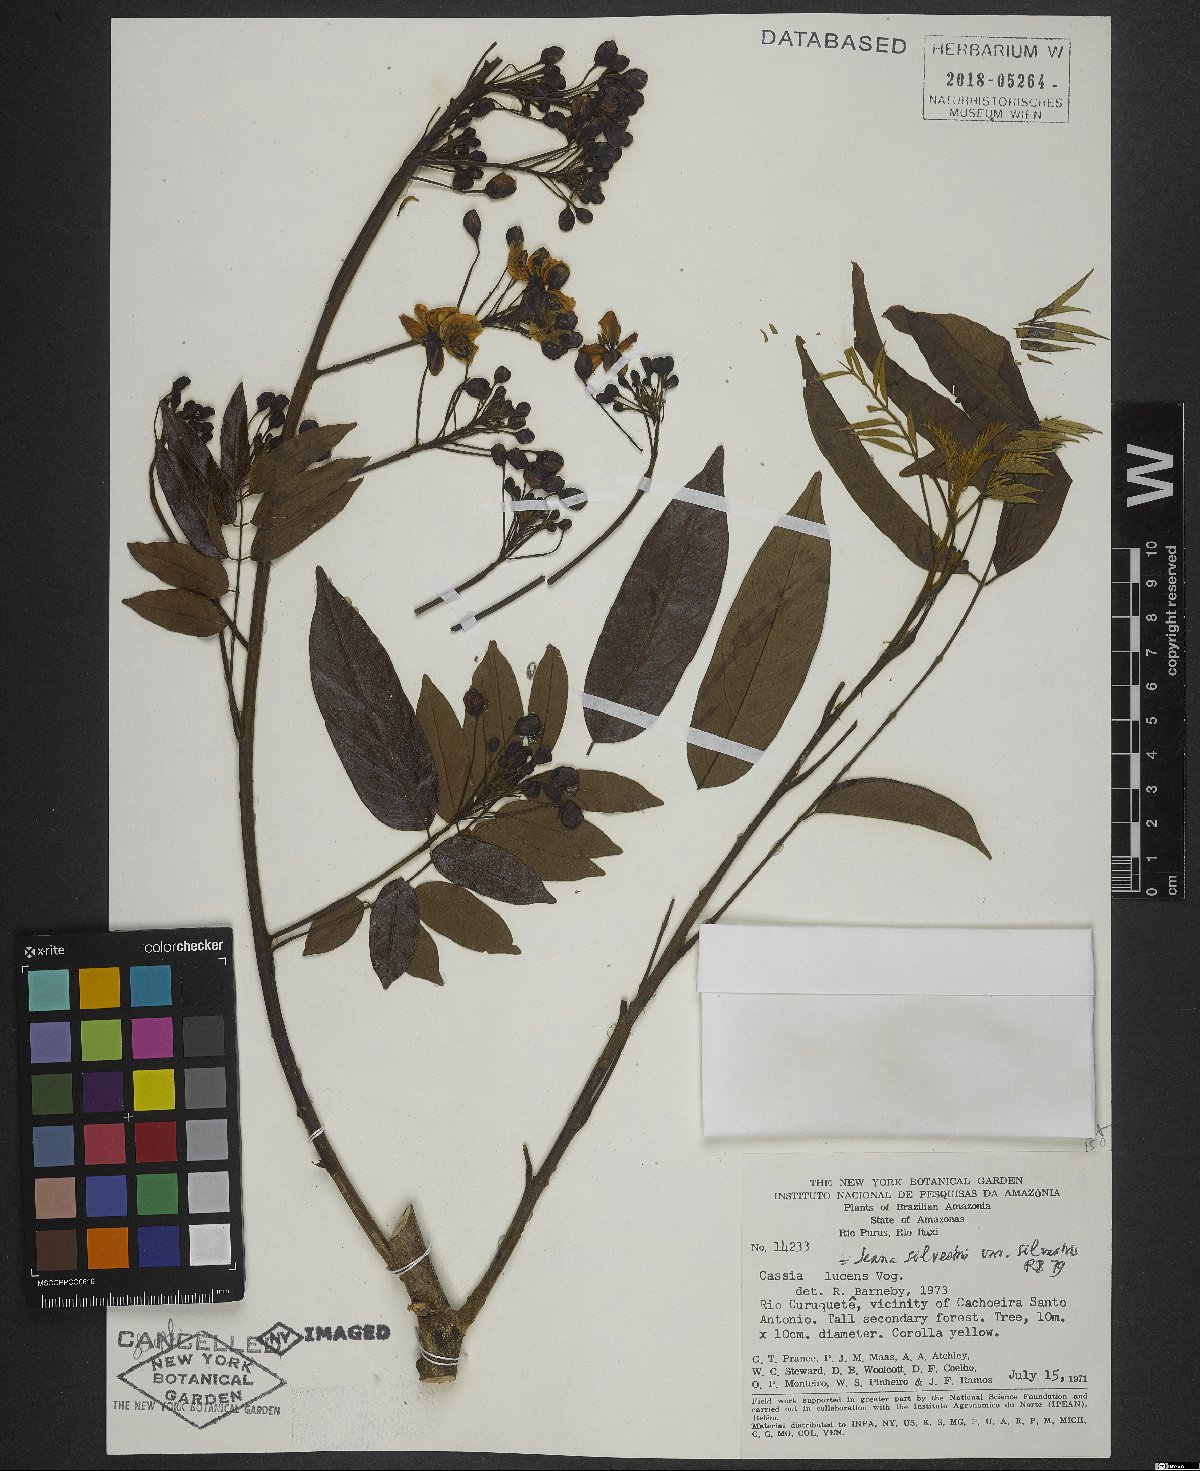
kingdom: Plantae
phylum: Tracheophyta
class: Magnoliopsida
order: Fabales
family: Fabaceae
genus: Senna
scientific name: Senna silvestris
